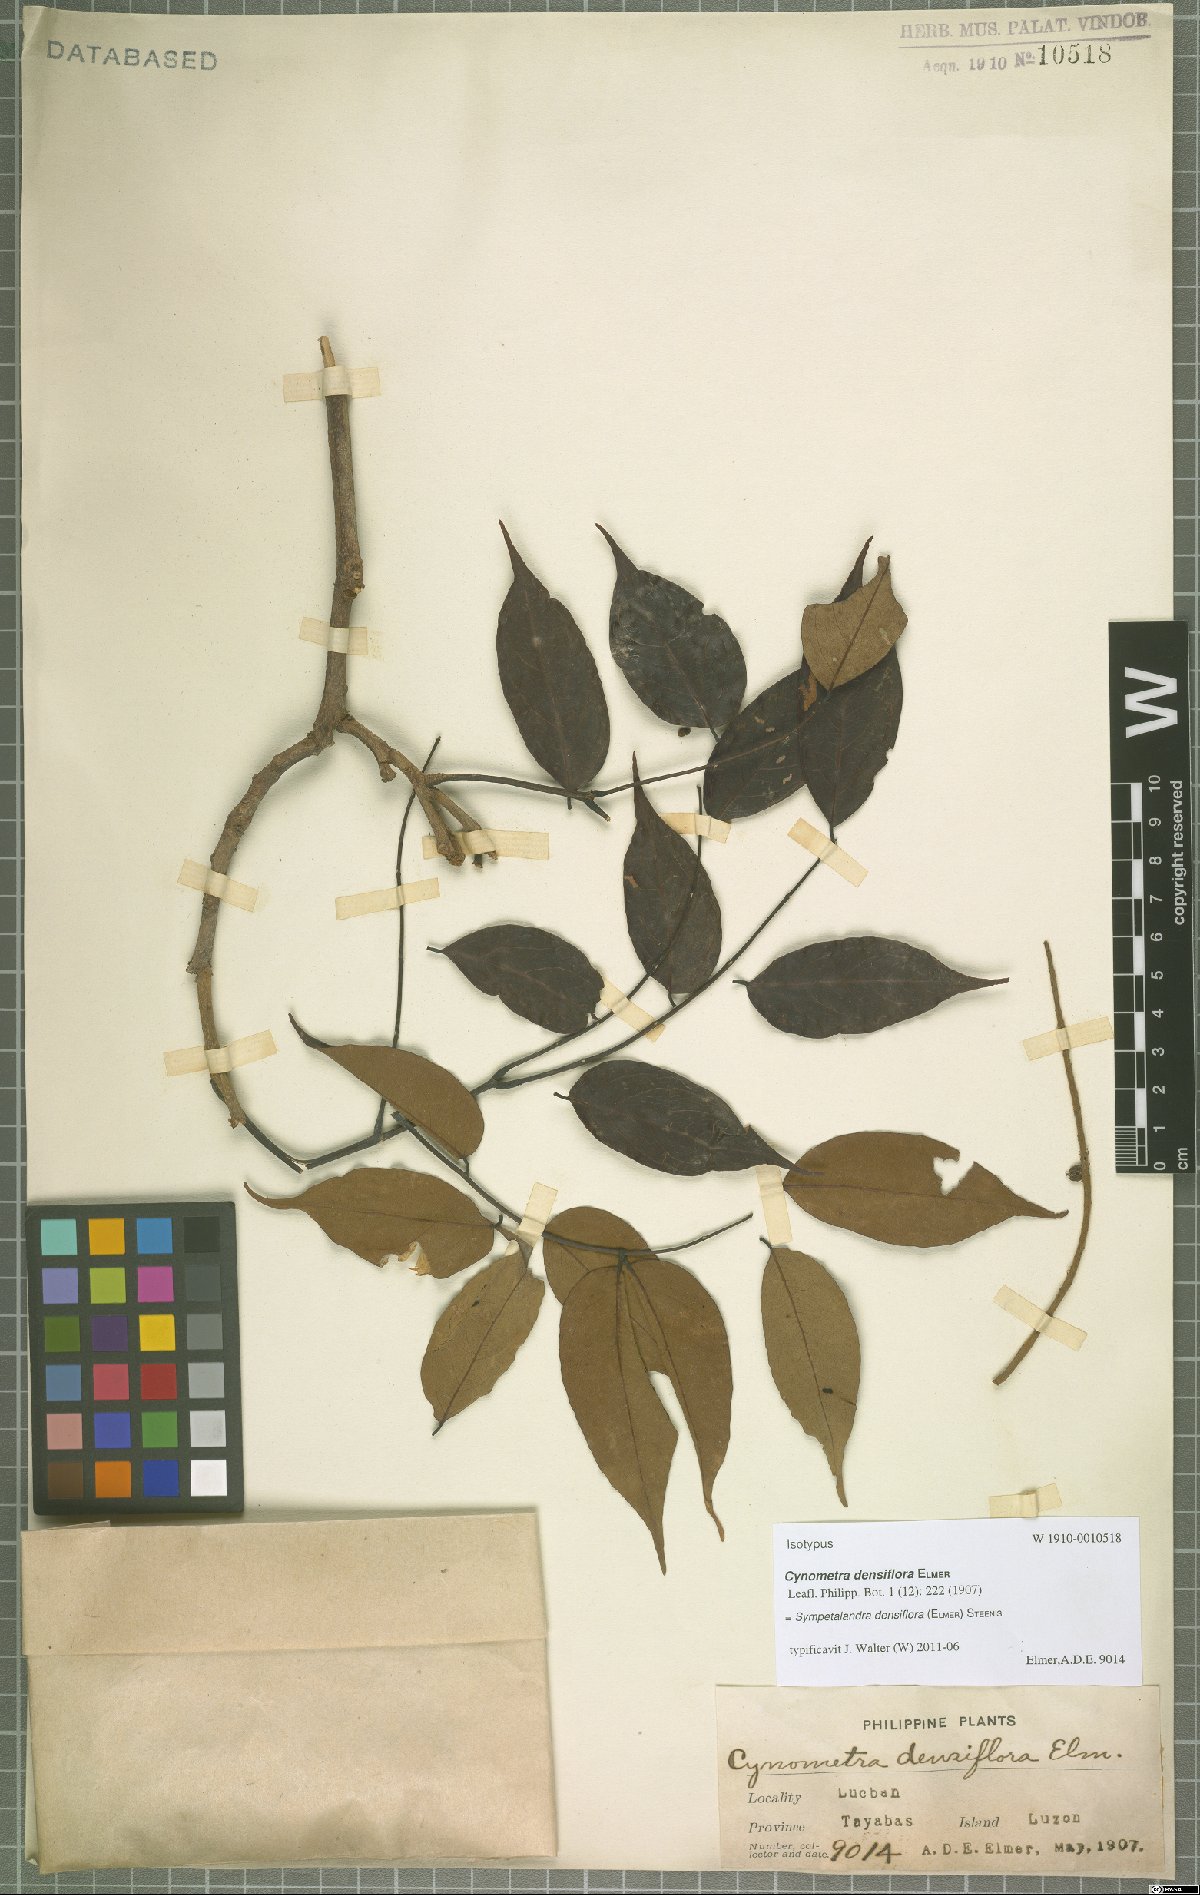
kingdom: Plantae
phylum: Tracheophyta
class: Magnoliopsida
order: Fabales
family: Fabaceae
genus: Sympetalandra
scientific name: Sympetalandra densiflora
